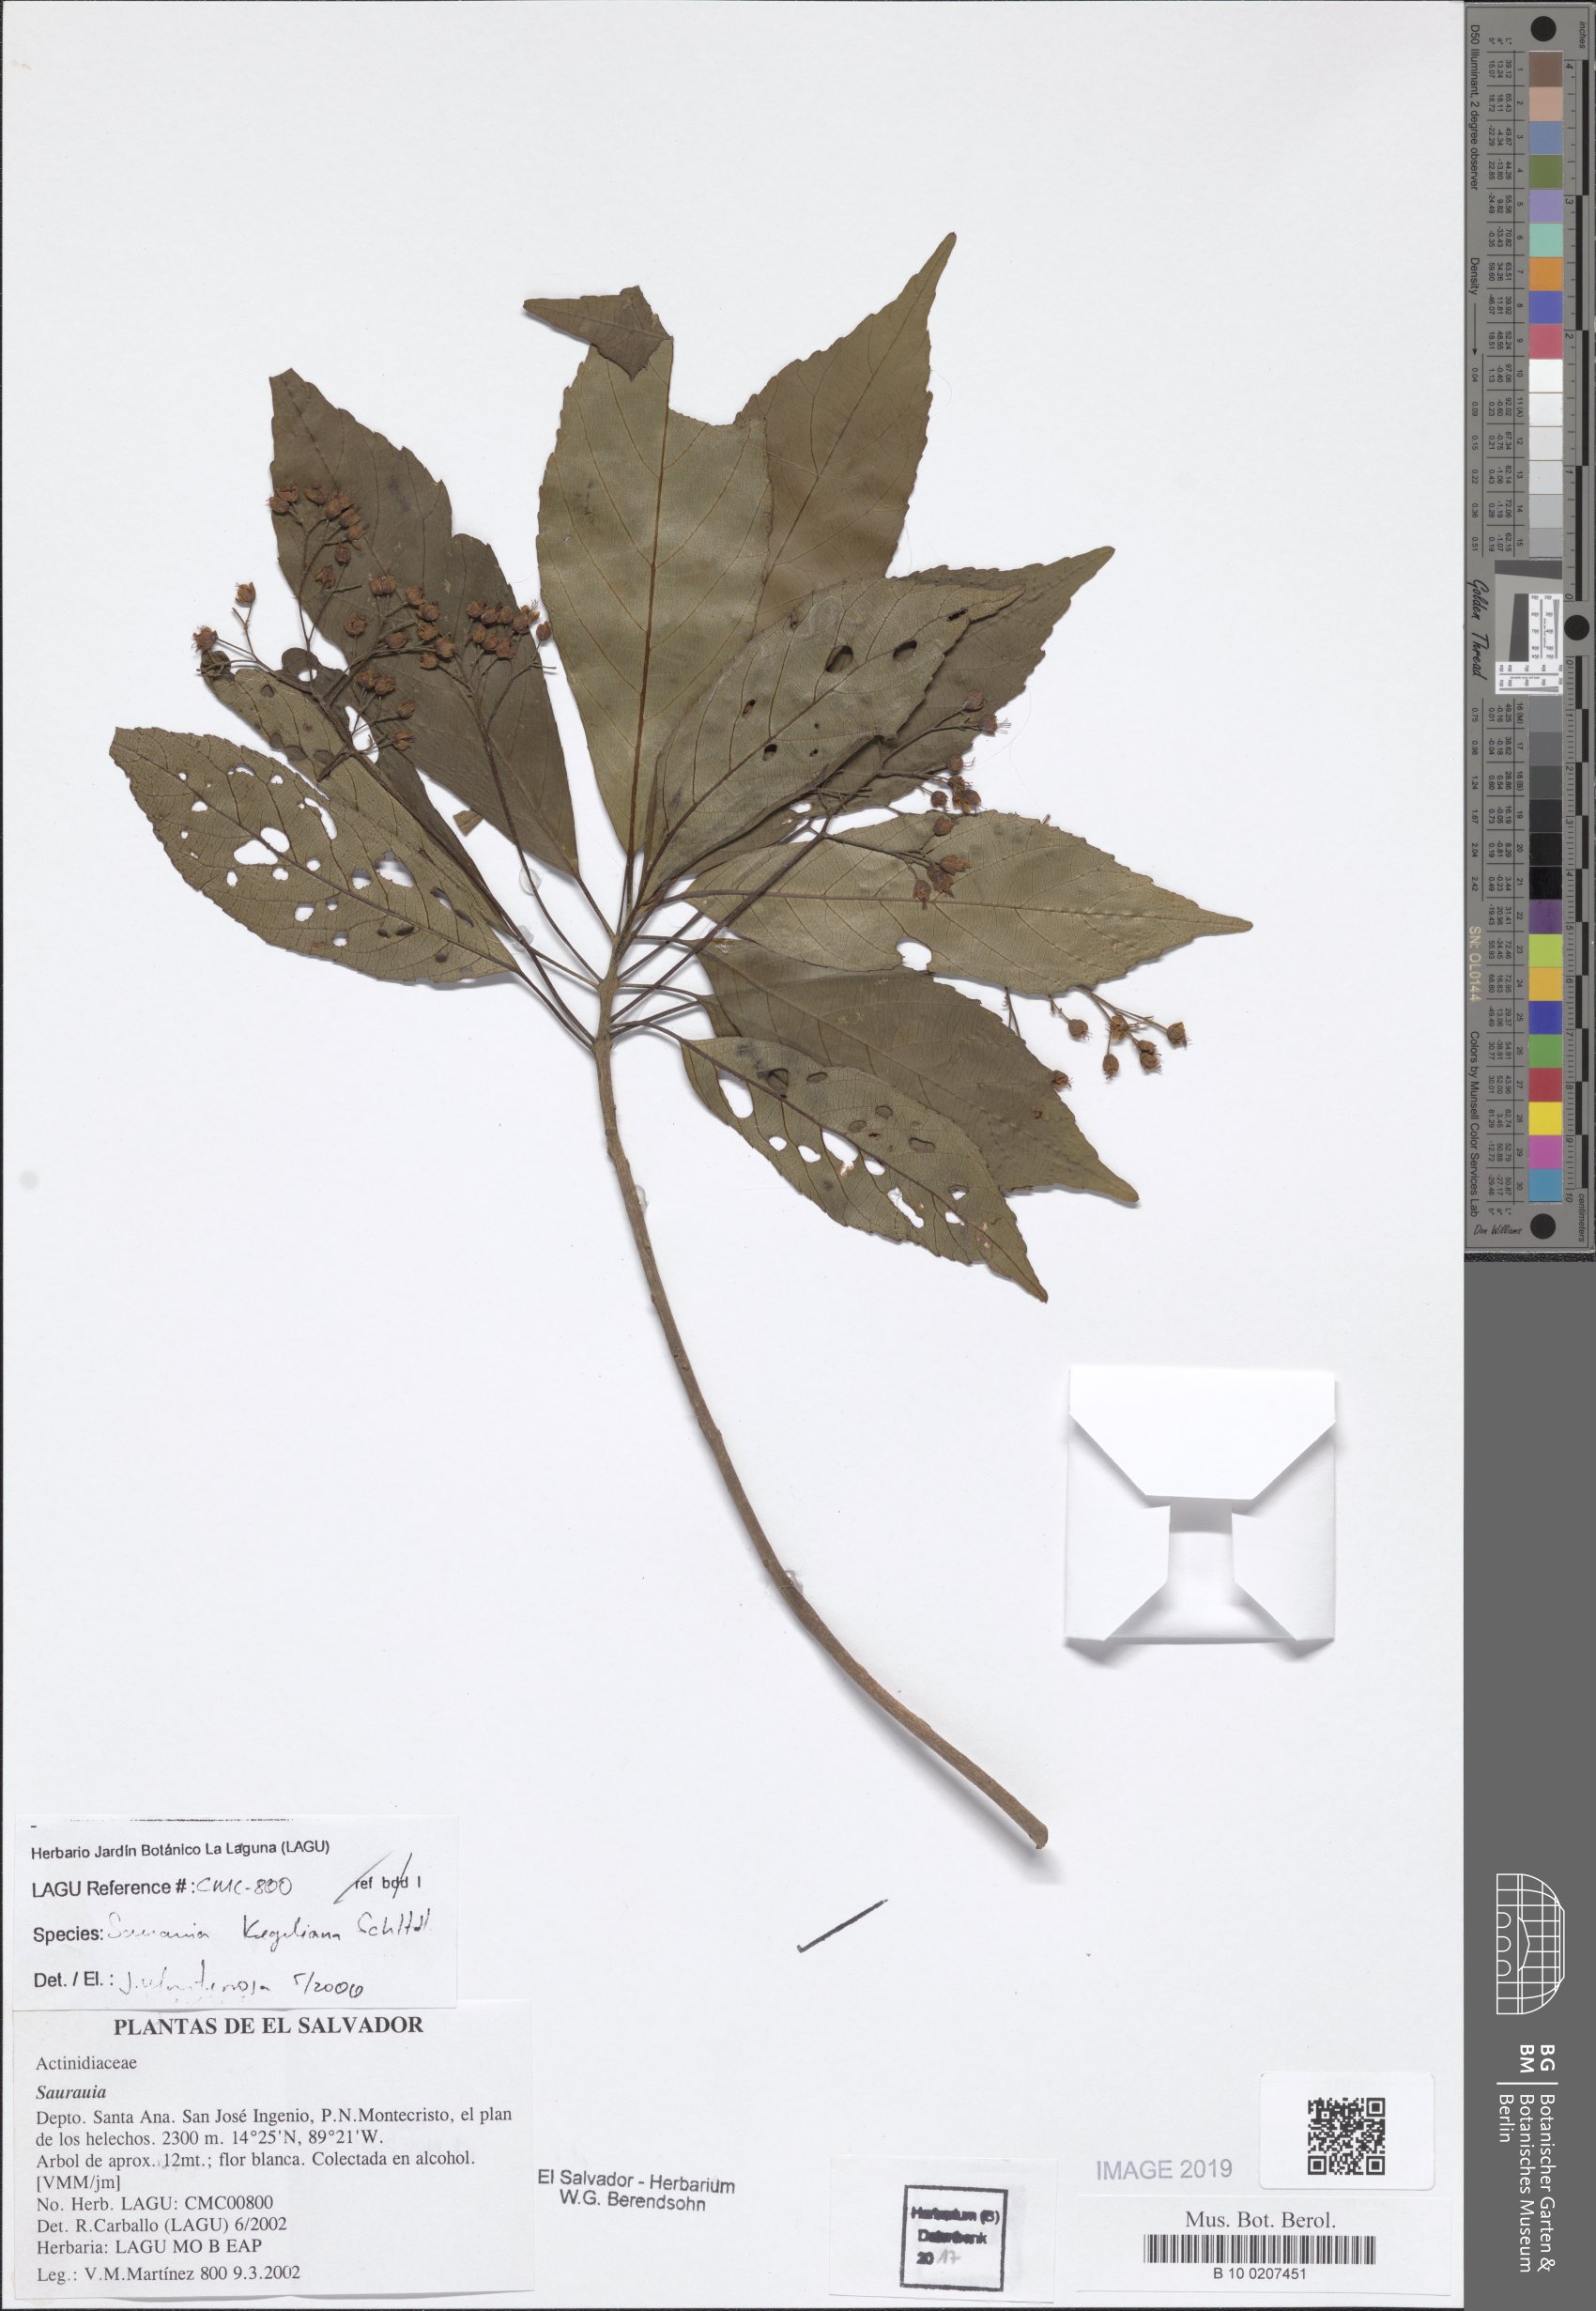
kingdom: Plantae
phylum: Tracheophyta
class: Magnoliopsida
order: Ericales
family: Actinidiaceae
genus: Saurauia
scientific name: Saurauia kegeliana
